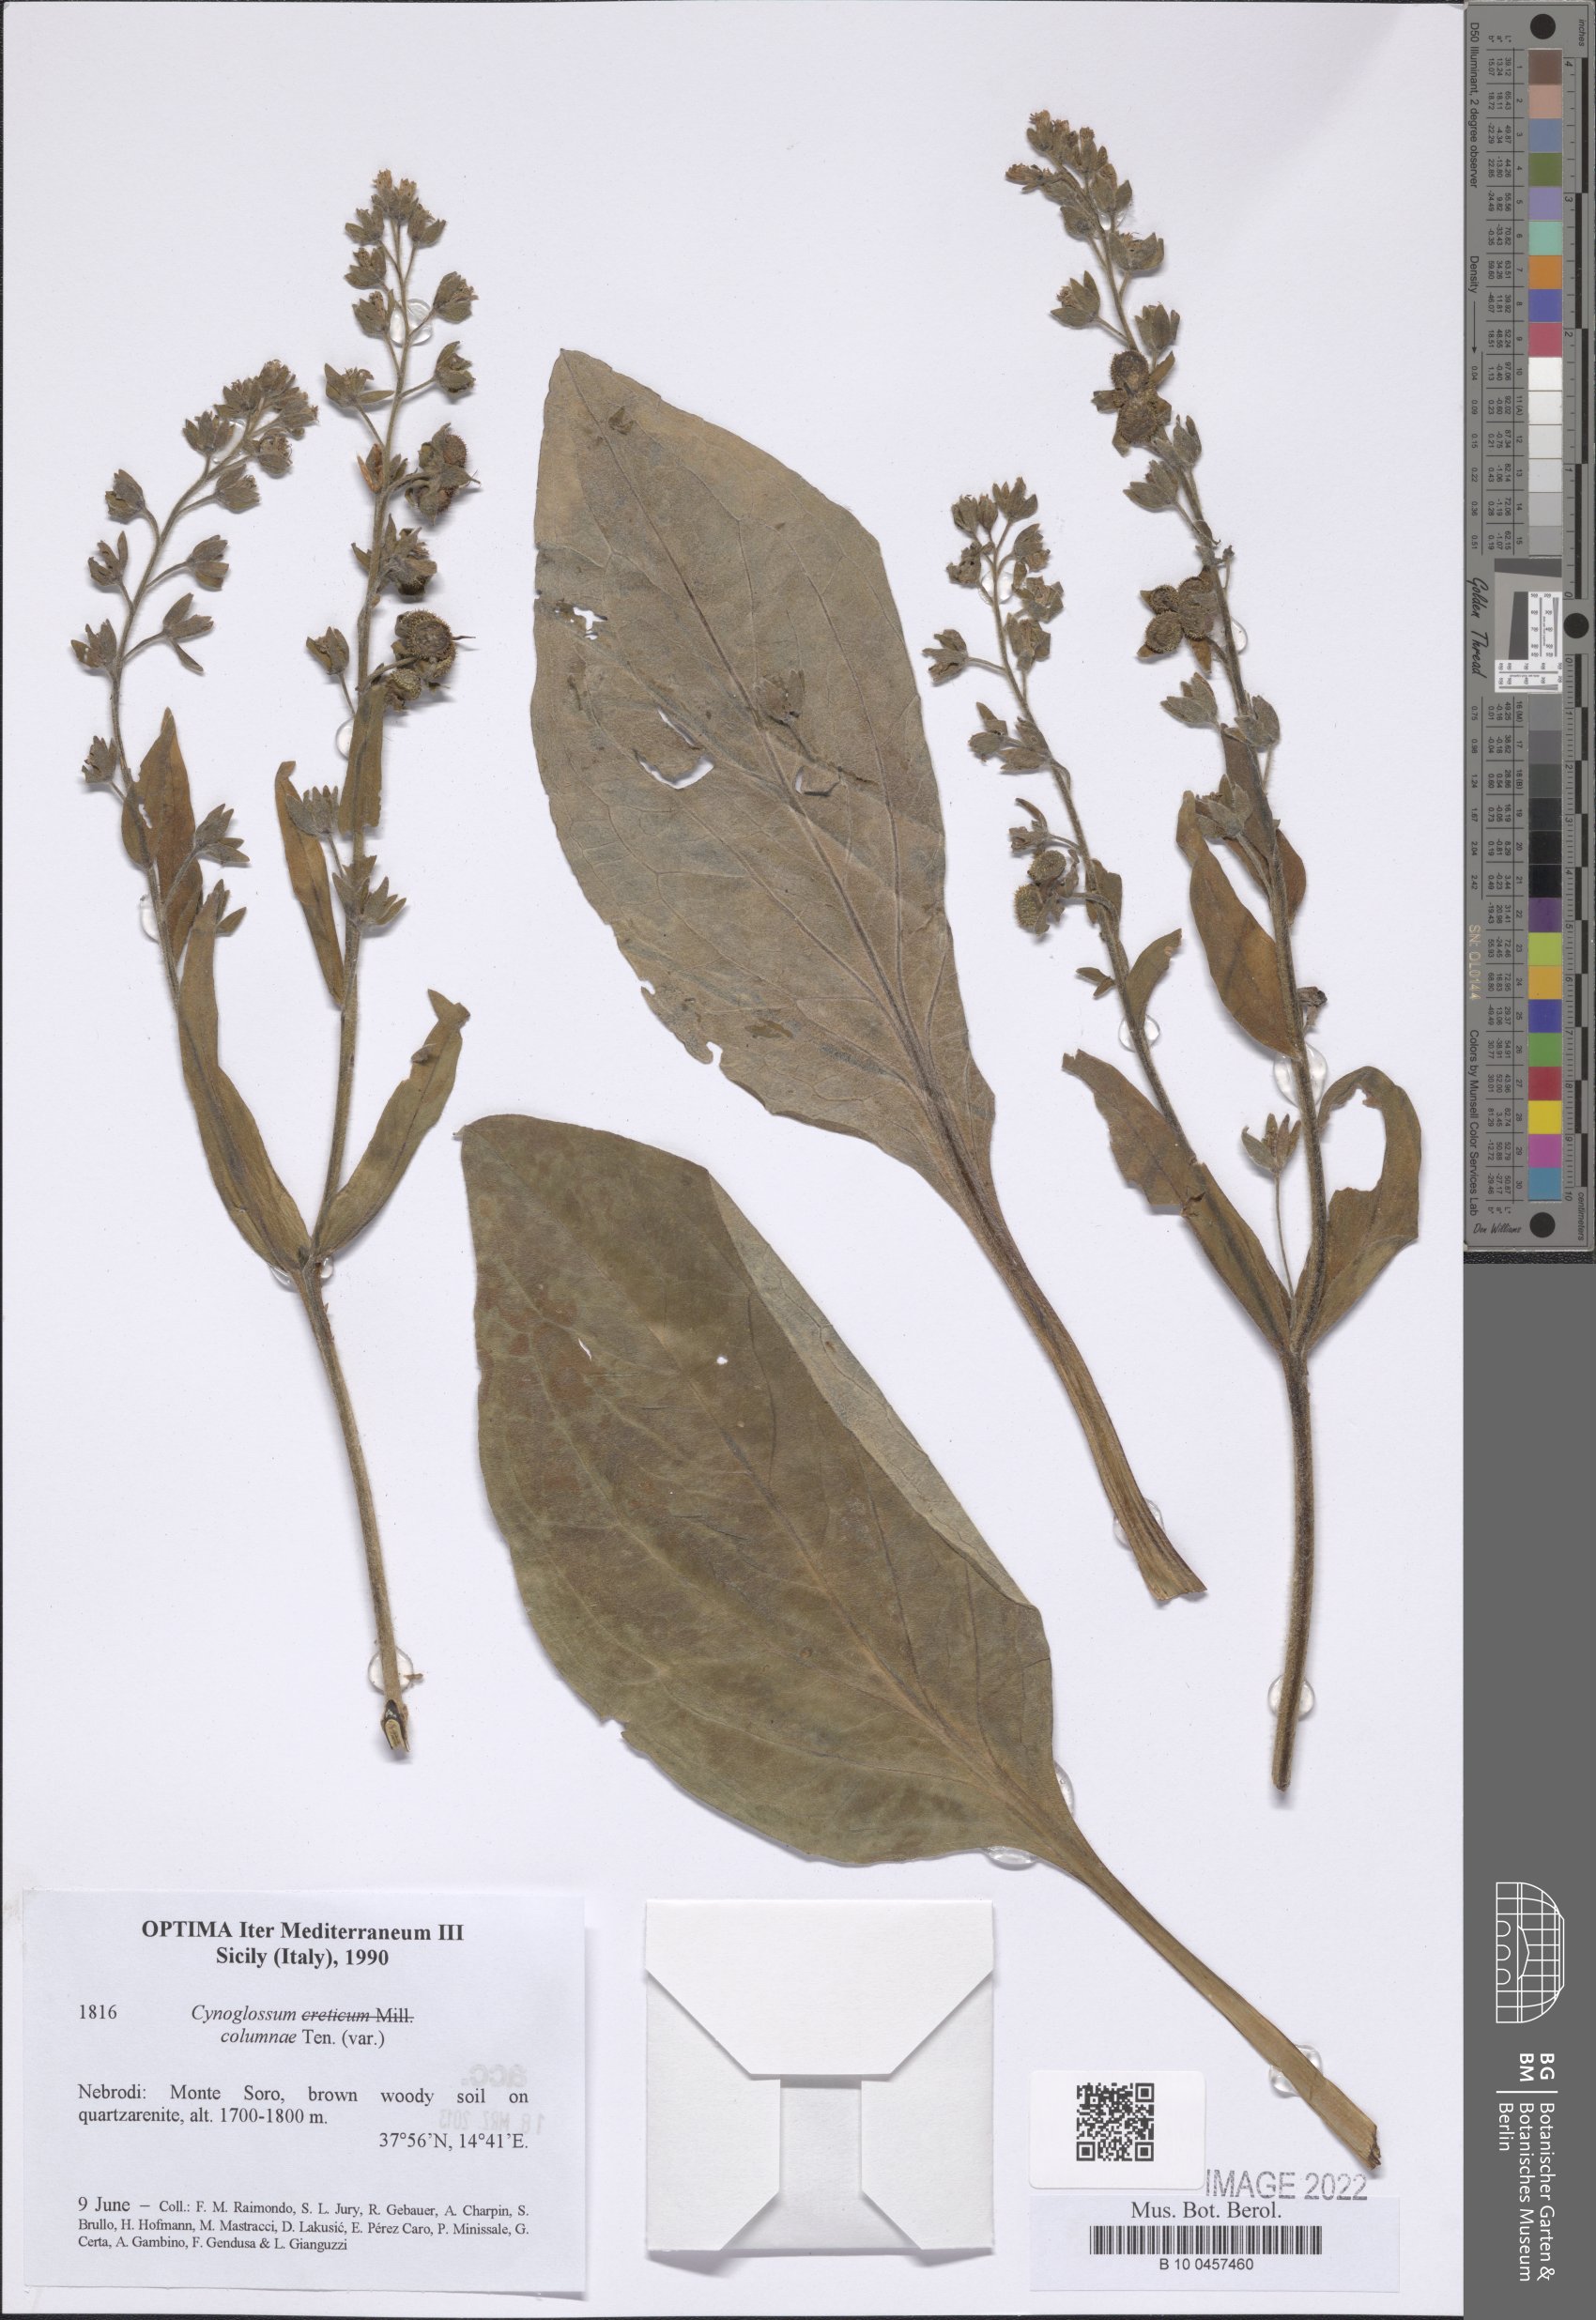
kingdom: Plantae
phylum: Tracheophyta
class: Magnoliopsida
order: Boraginales
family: Boraginaceae
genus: Rindera
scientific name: Rindera columnae
